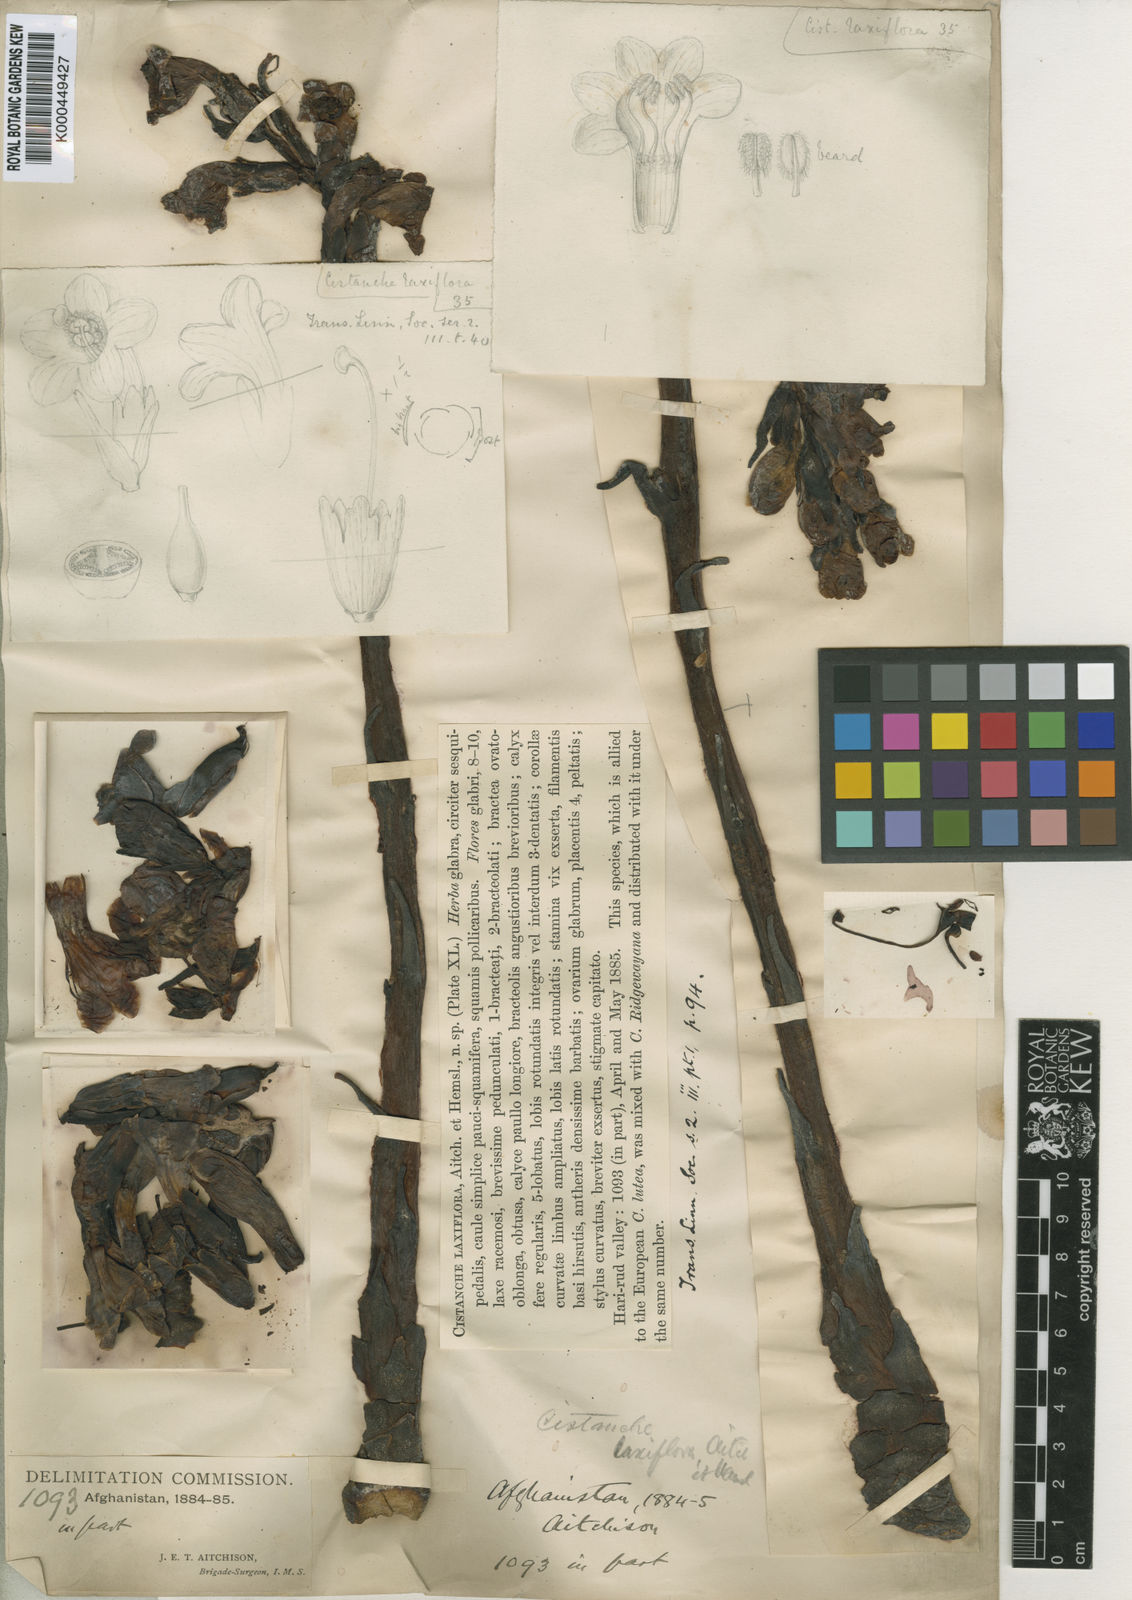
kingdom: Plantae
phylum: Tracheophyta
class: Magnoliopsida
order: Lamiales
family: Orobanchaceae
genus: Cistanche
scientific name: Cistanche laxiflora
